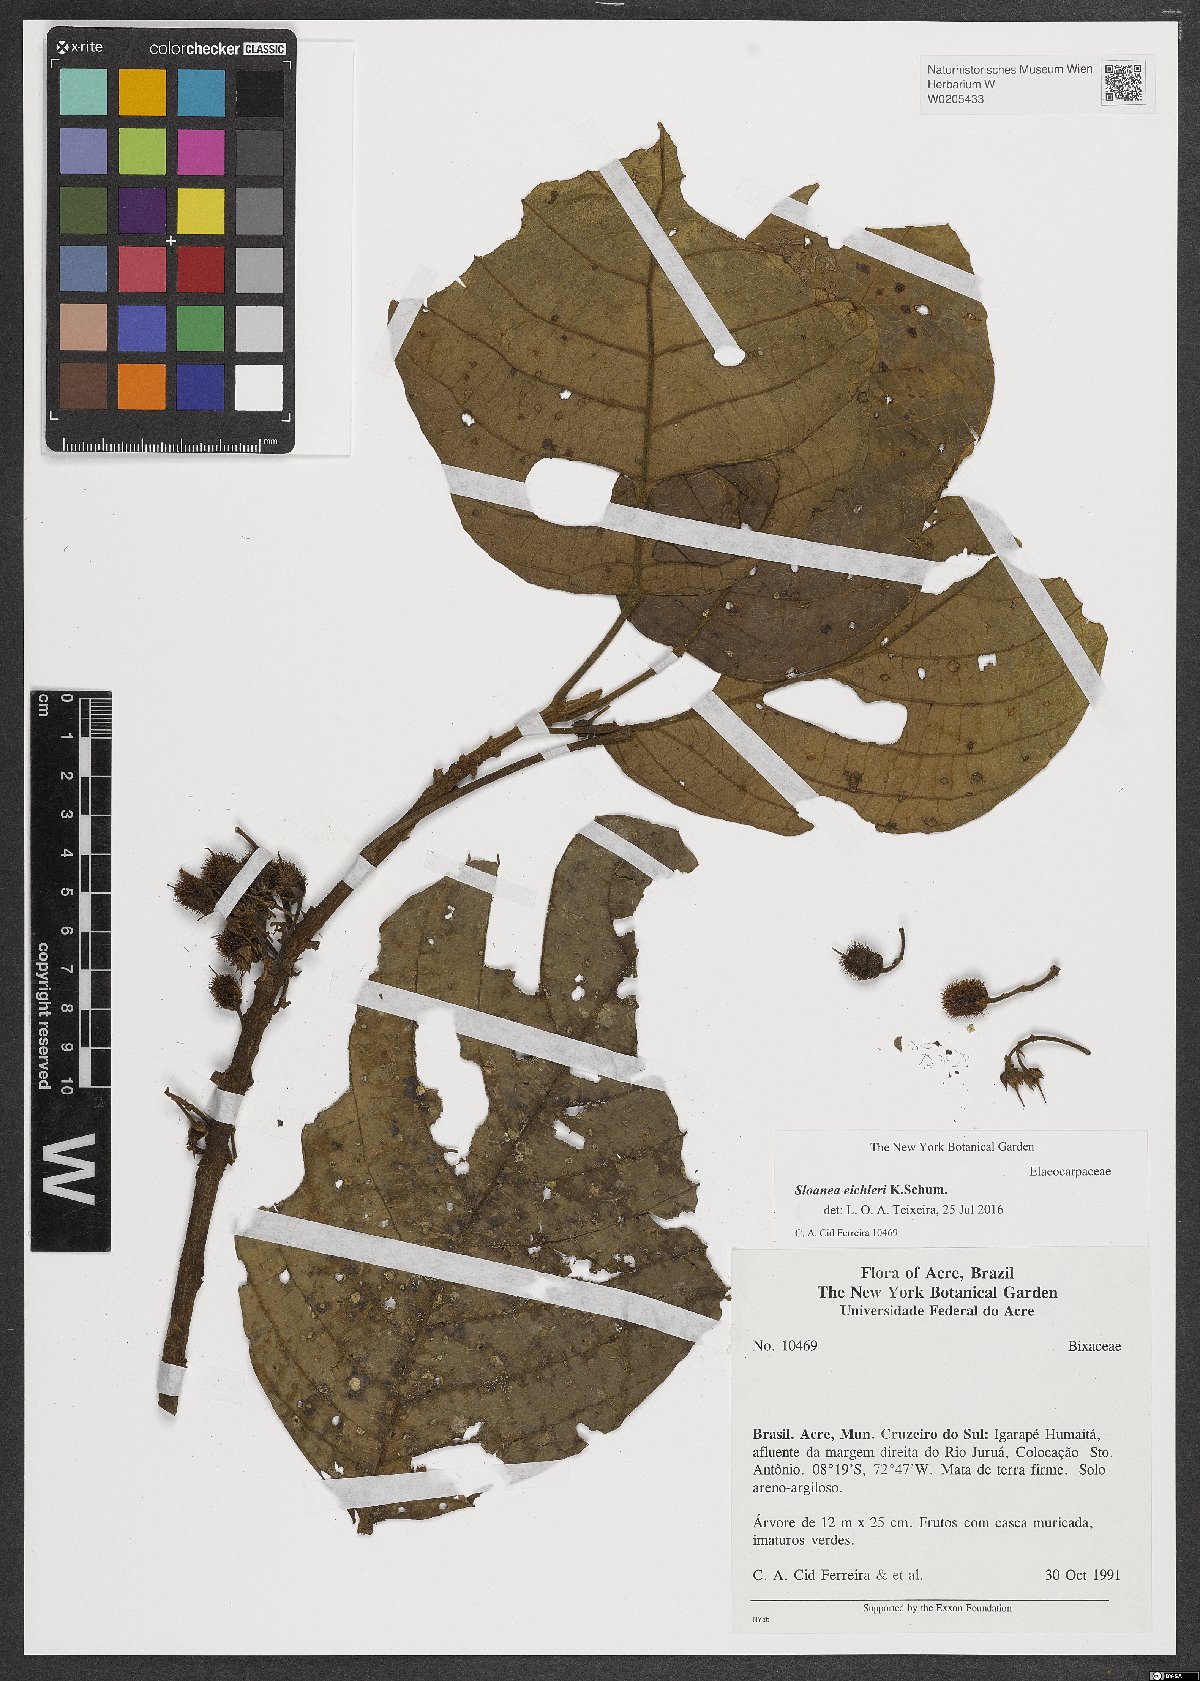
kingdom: Plantae
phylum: Tracheophyta
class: Magnoliopsida
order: Oxalidales
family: Elaeocarpaceae
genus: Sloanea
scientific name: Sloanea eichleri
